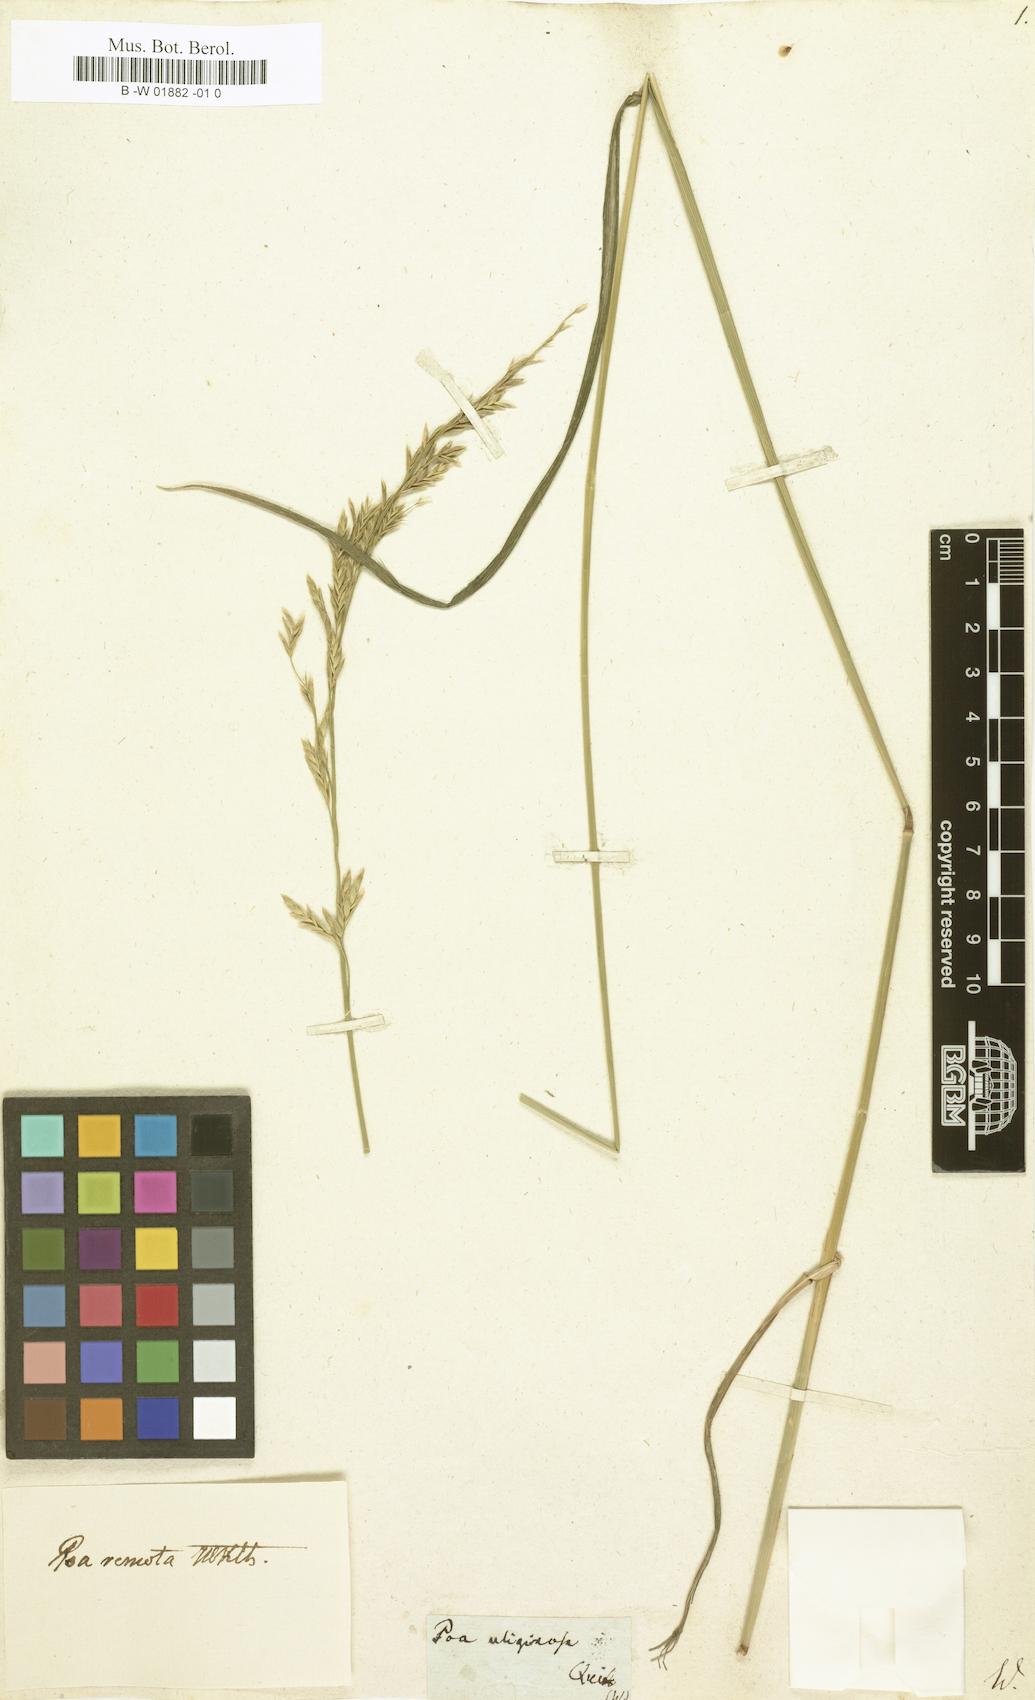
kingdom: Plantae
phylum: Tracheophyta
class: Liliopsida
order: Poales
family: Poaceae
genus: Lolium
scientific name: Lolium arundinaceum
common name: Reed fescue
